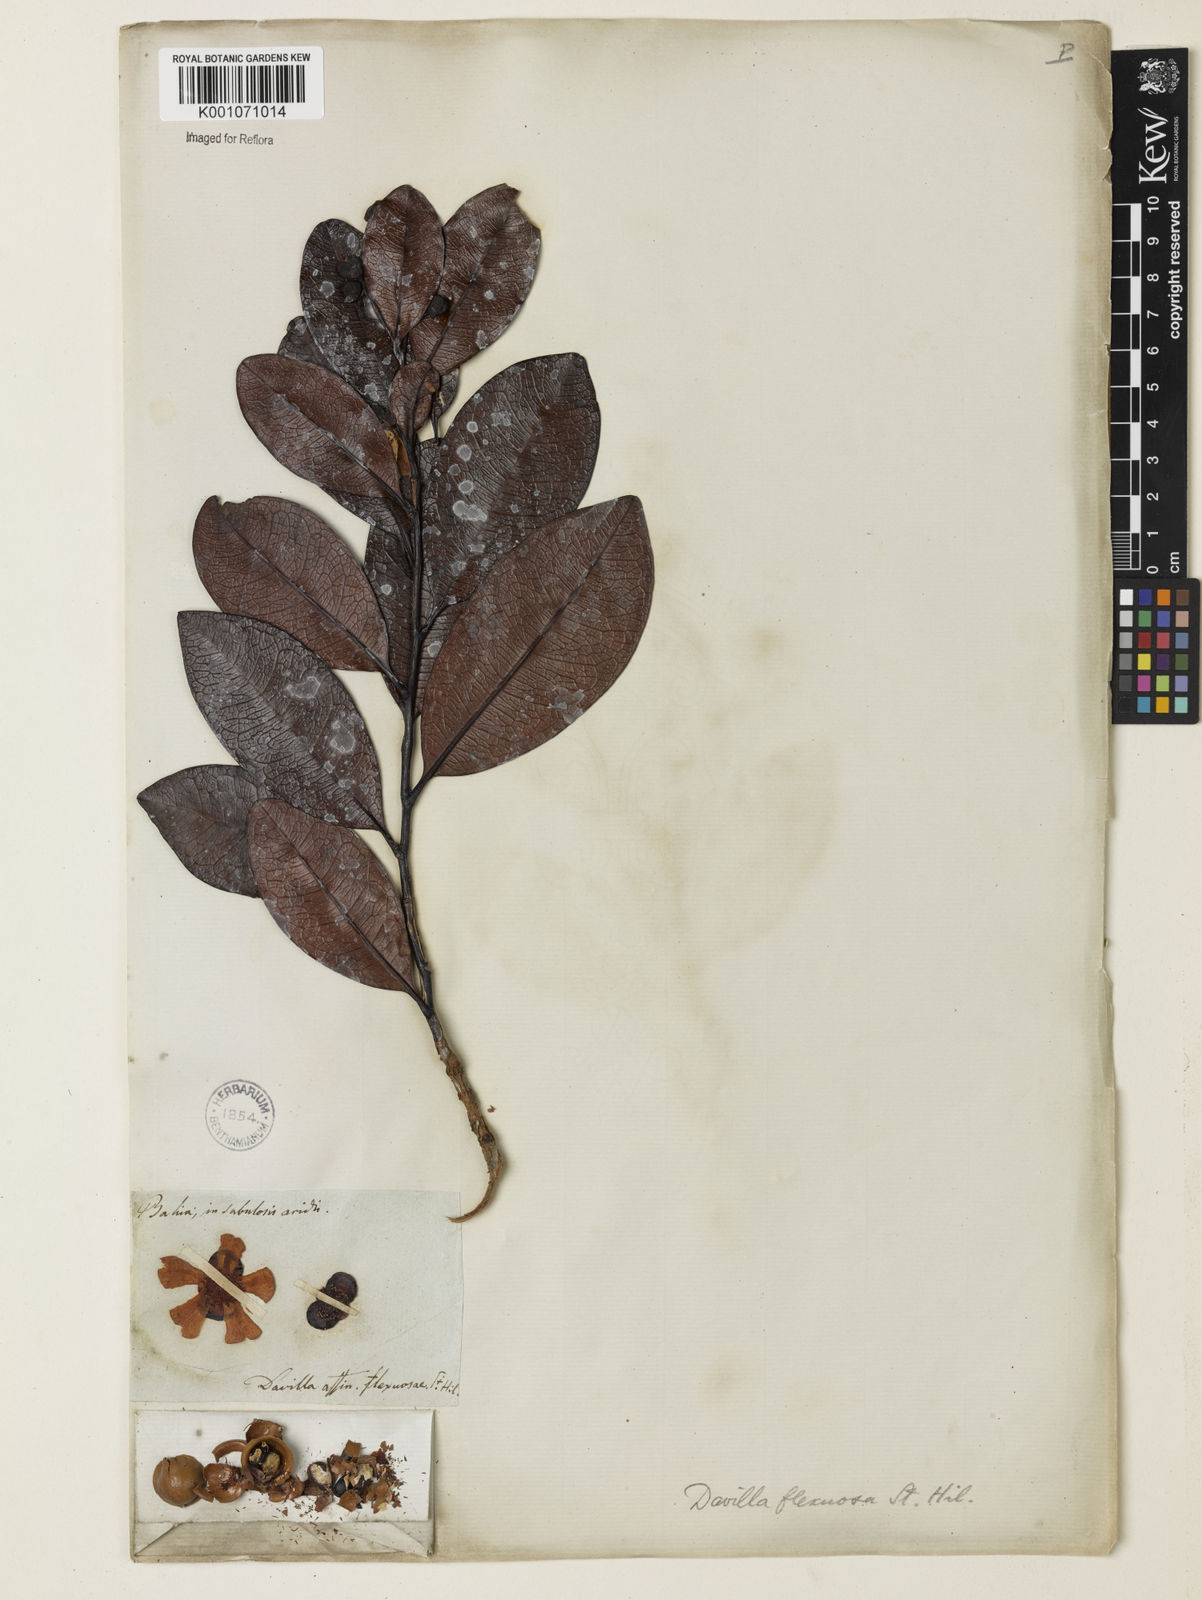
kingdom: Plantae
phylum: Tracheophyta
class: Magnoliopsida
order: Dilleniales
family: Dilleniaceae
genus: Davilla
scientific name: Davilla flexuosa
